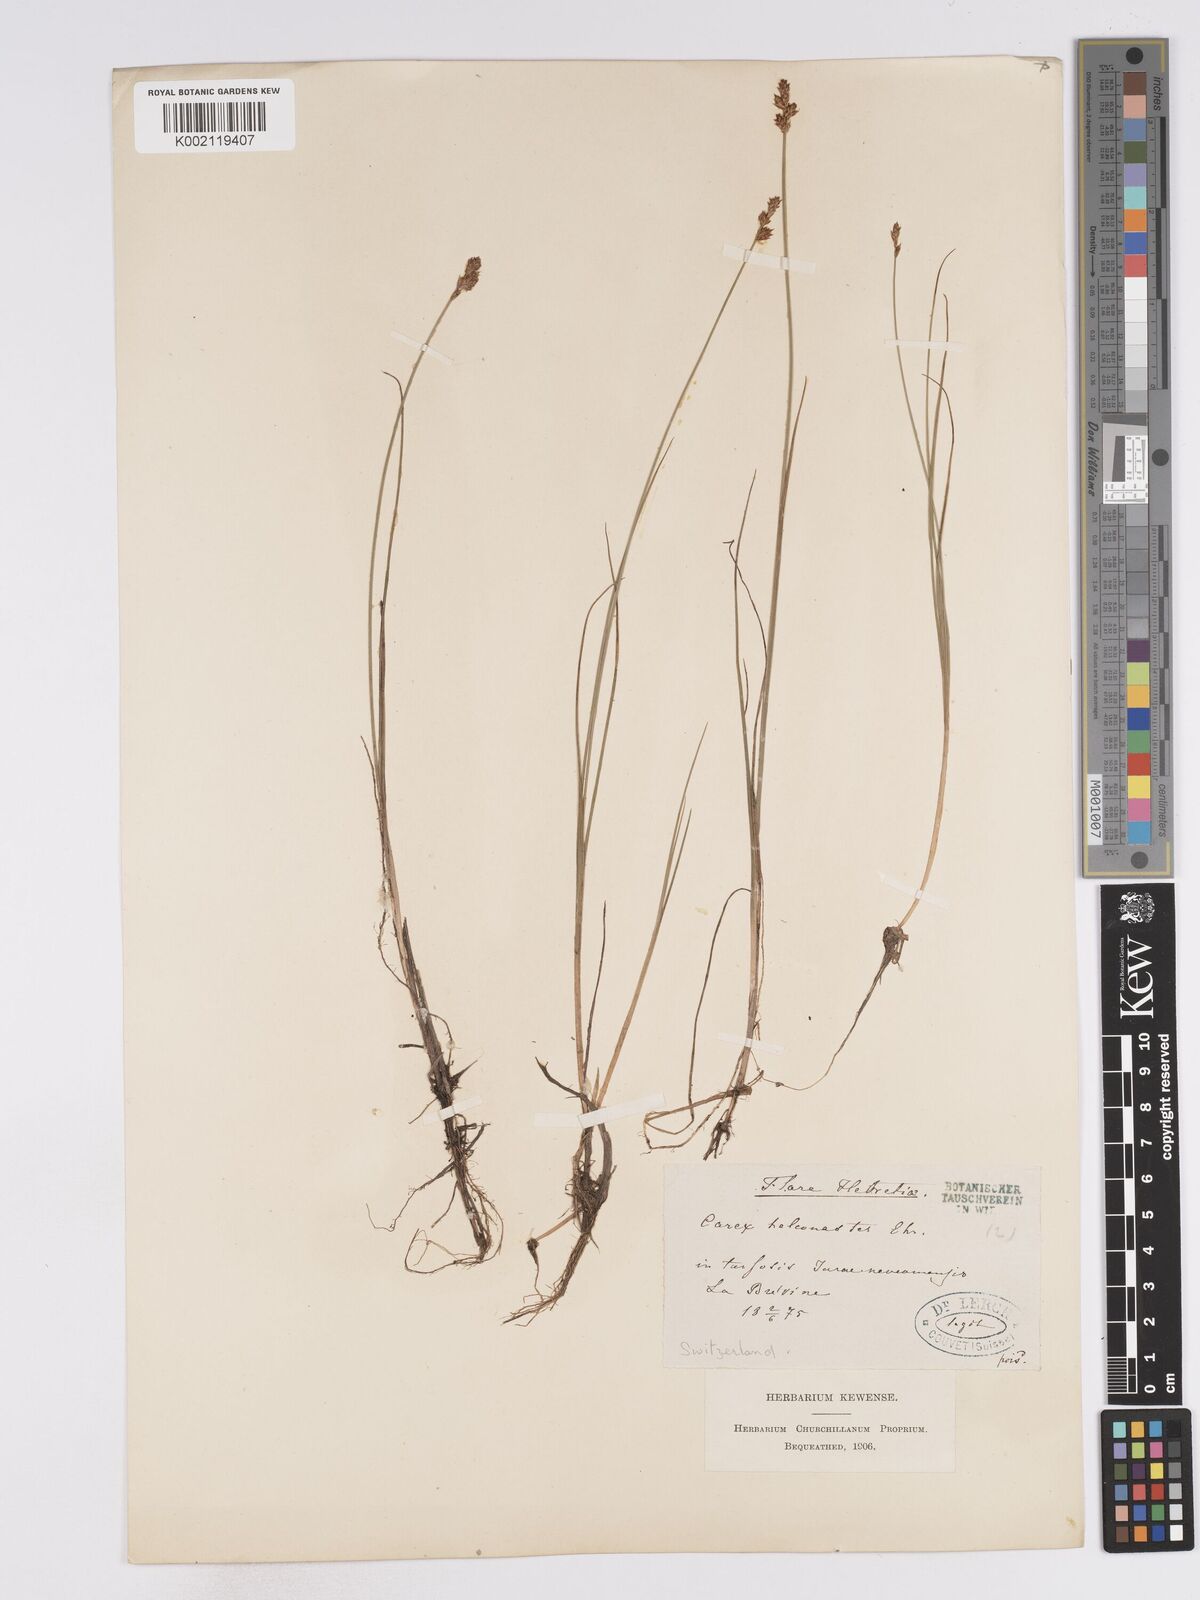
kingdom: Plantae
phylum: Tracheophyta
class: Liliopsida
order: Poales
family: Cyperaceae
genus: Carex
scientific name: Carex heleonastes
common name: Hudson bay sedge
